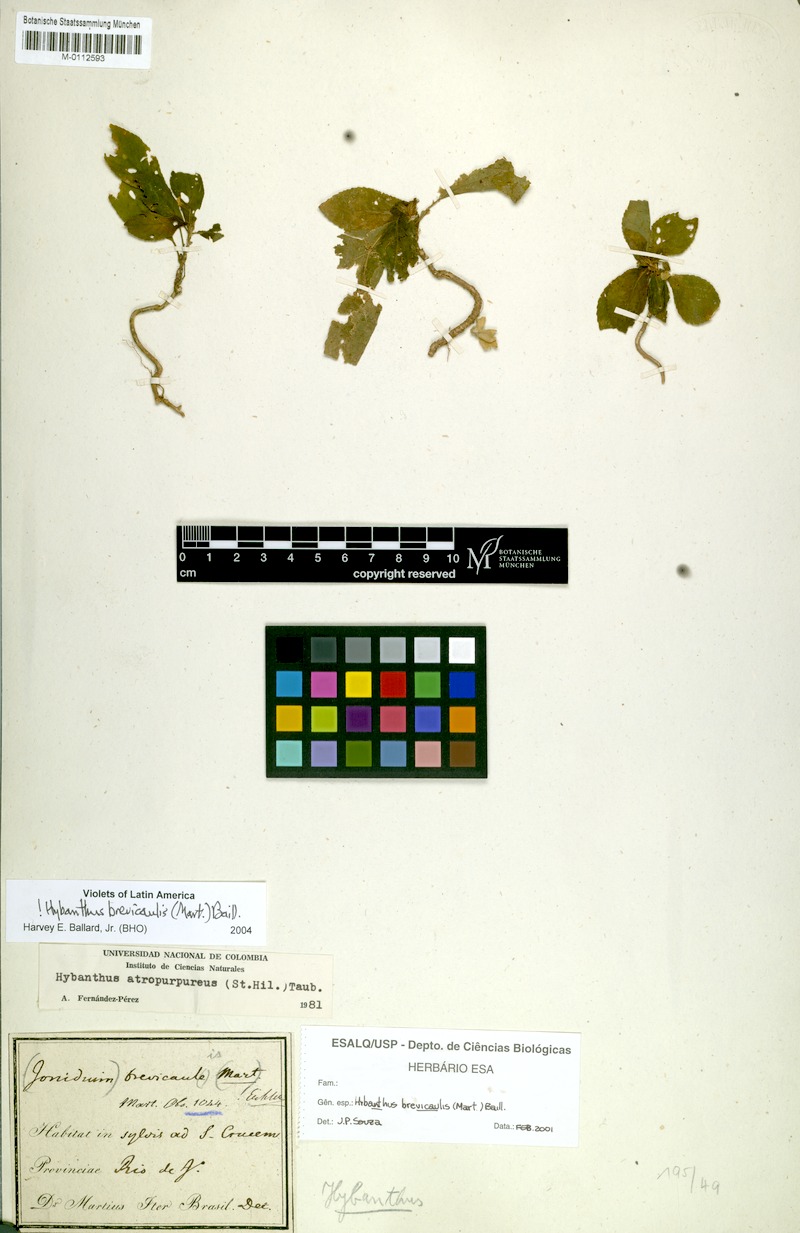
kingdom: Plantae
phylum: Tracheophyta
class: Magnoliopsida
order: Malpighiales
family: Violaceae
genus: Pombalia
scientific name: Pombalia brevicaulis
